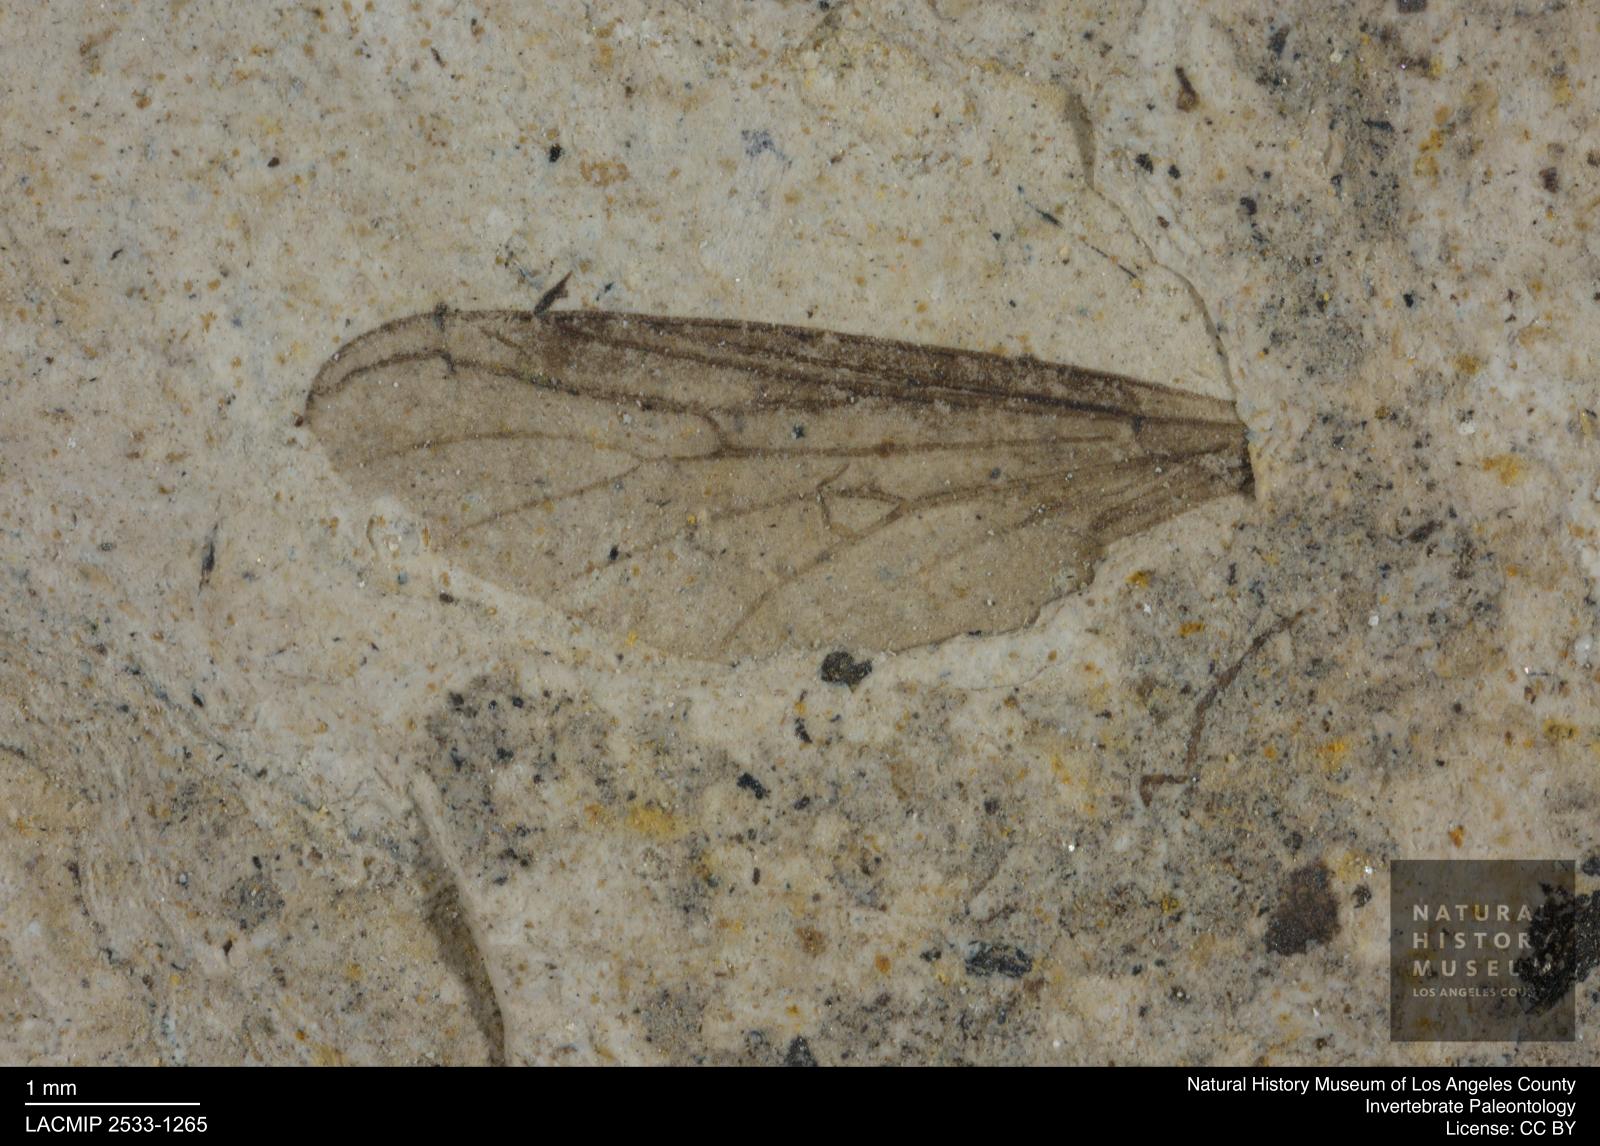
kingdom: Animalia
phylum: Arthropoda
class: Insecta
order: Diptera
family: Bibionidae
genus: Plecia
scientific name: Plecia
